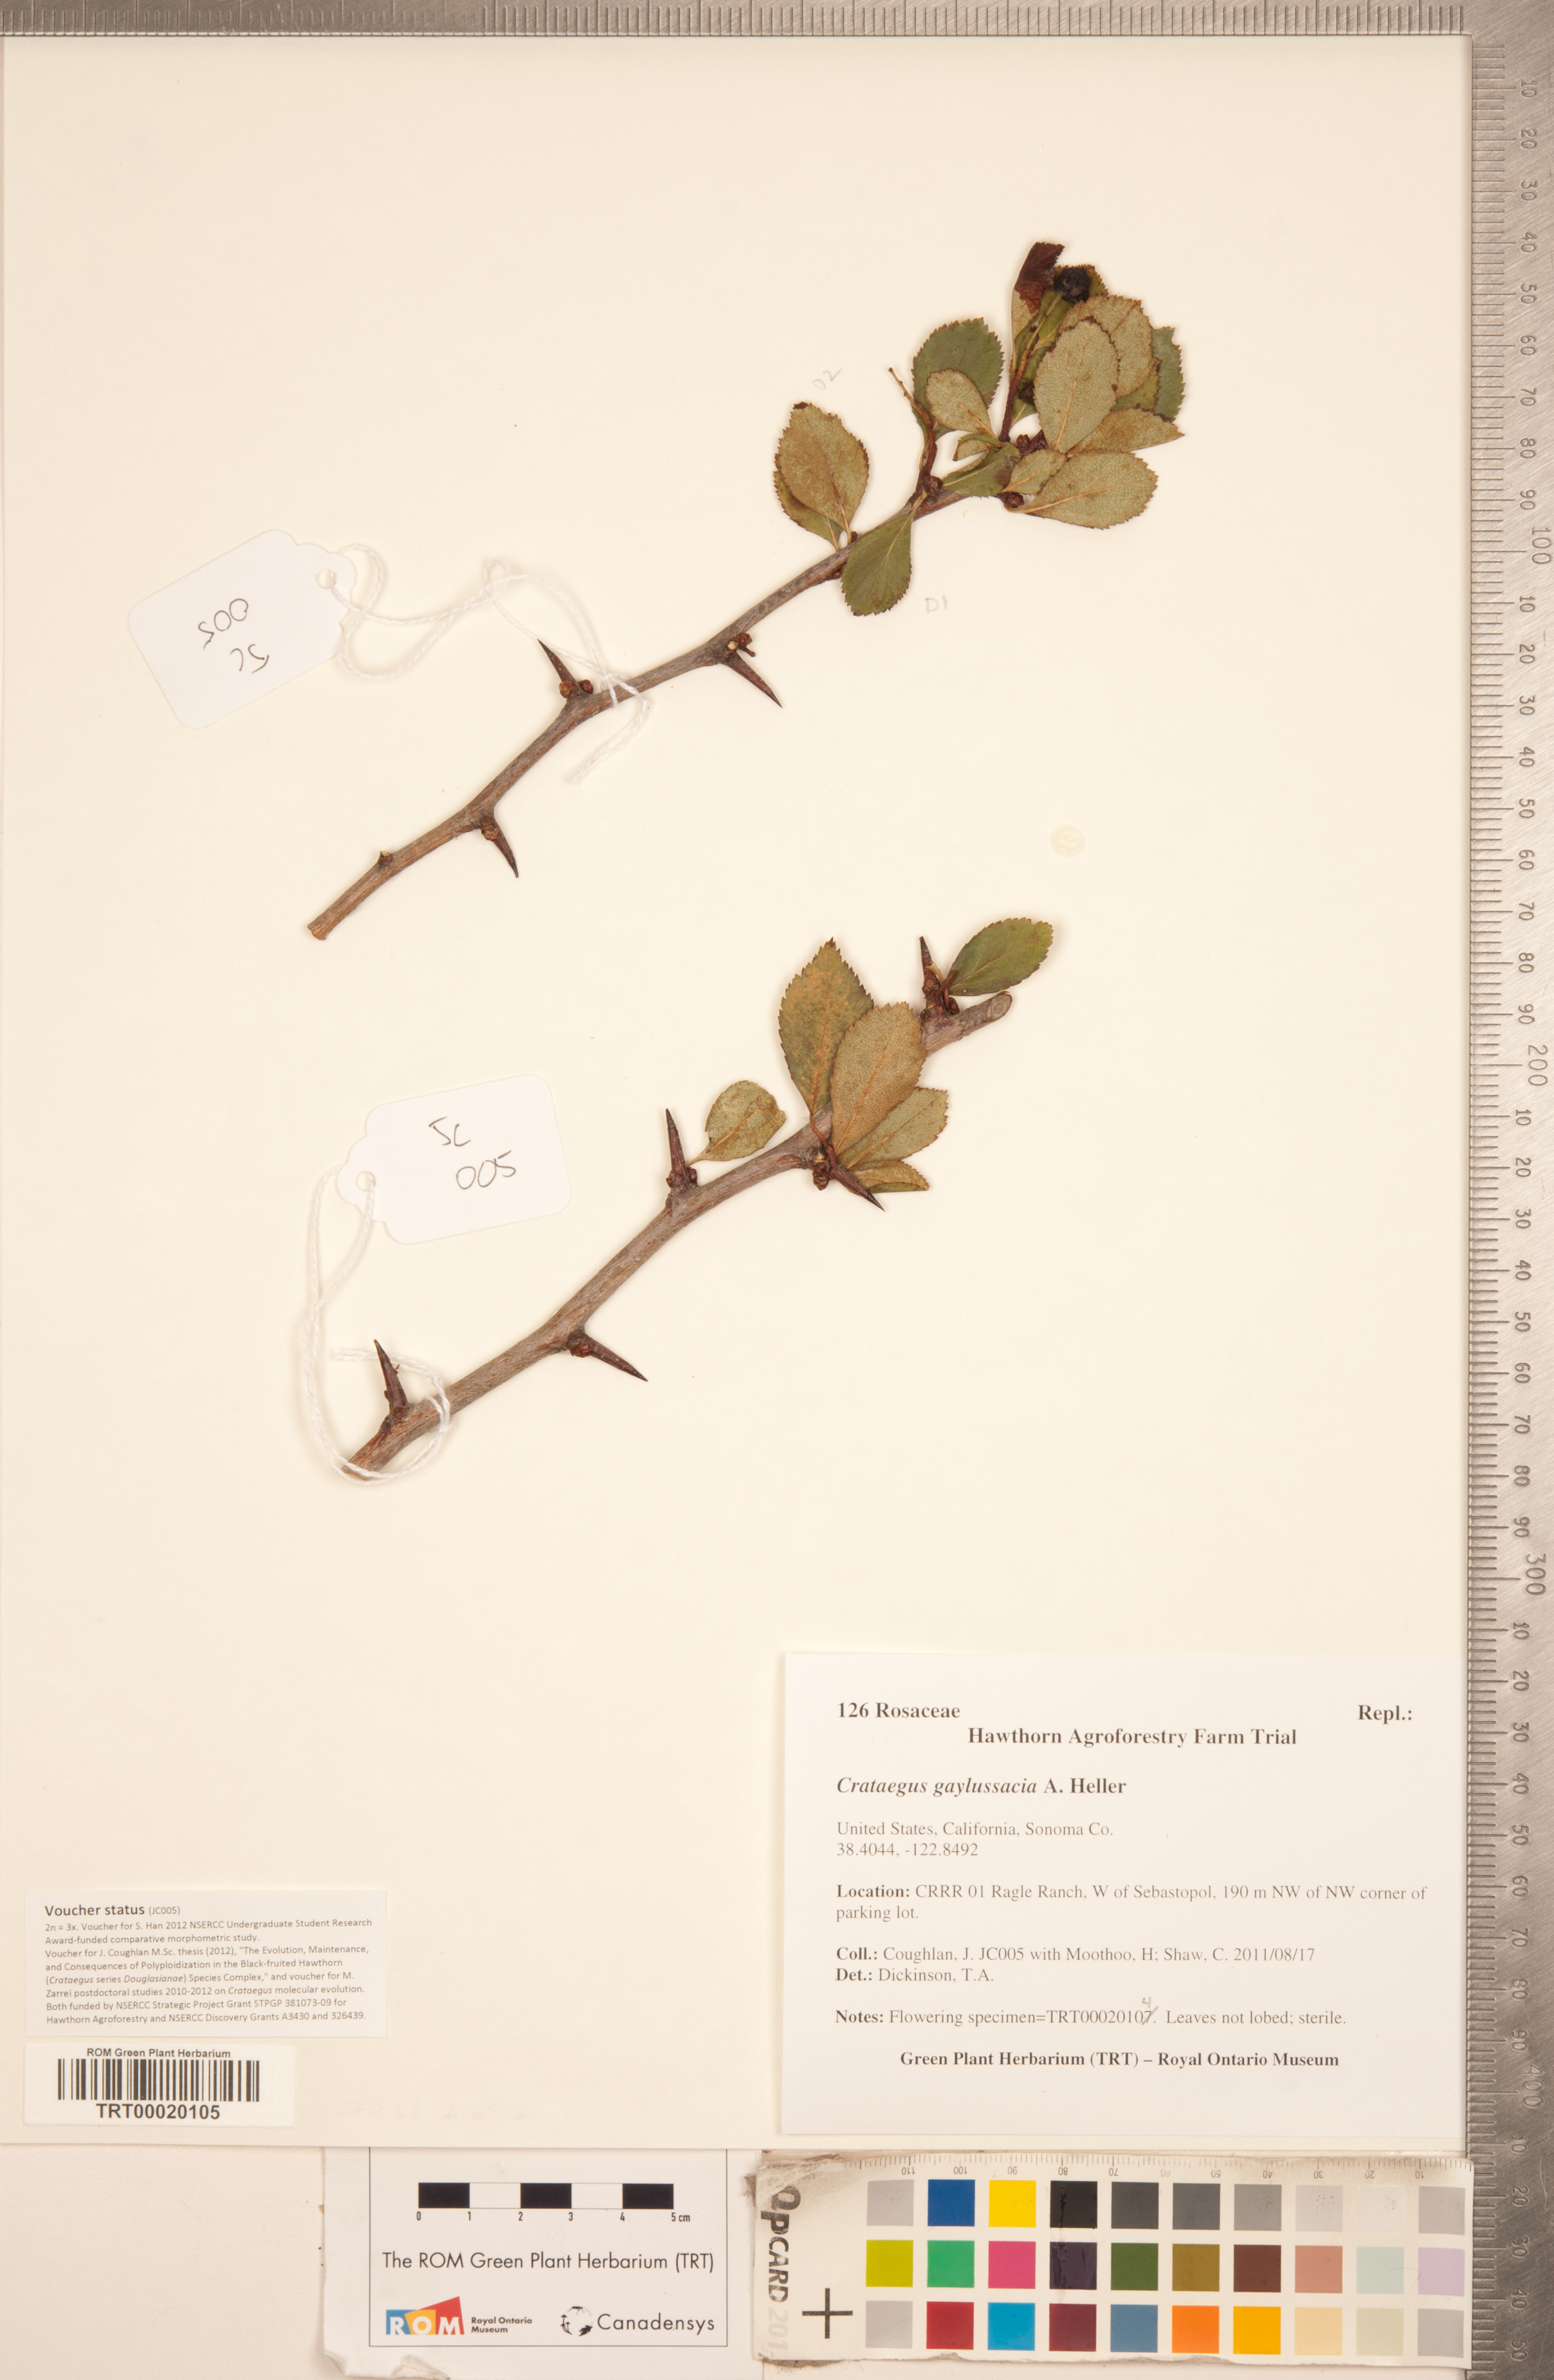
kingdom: Plantae
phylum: Tracheophyta
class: Magnoliopsida
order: Rosales
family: Rosaceae
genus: Crataegus
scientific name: Crataegus gaylussacia
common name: Huckleberry hawthorn
